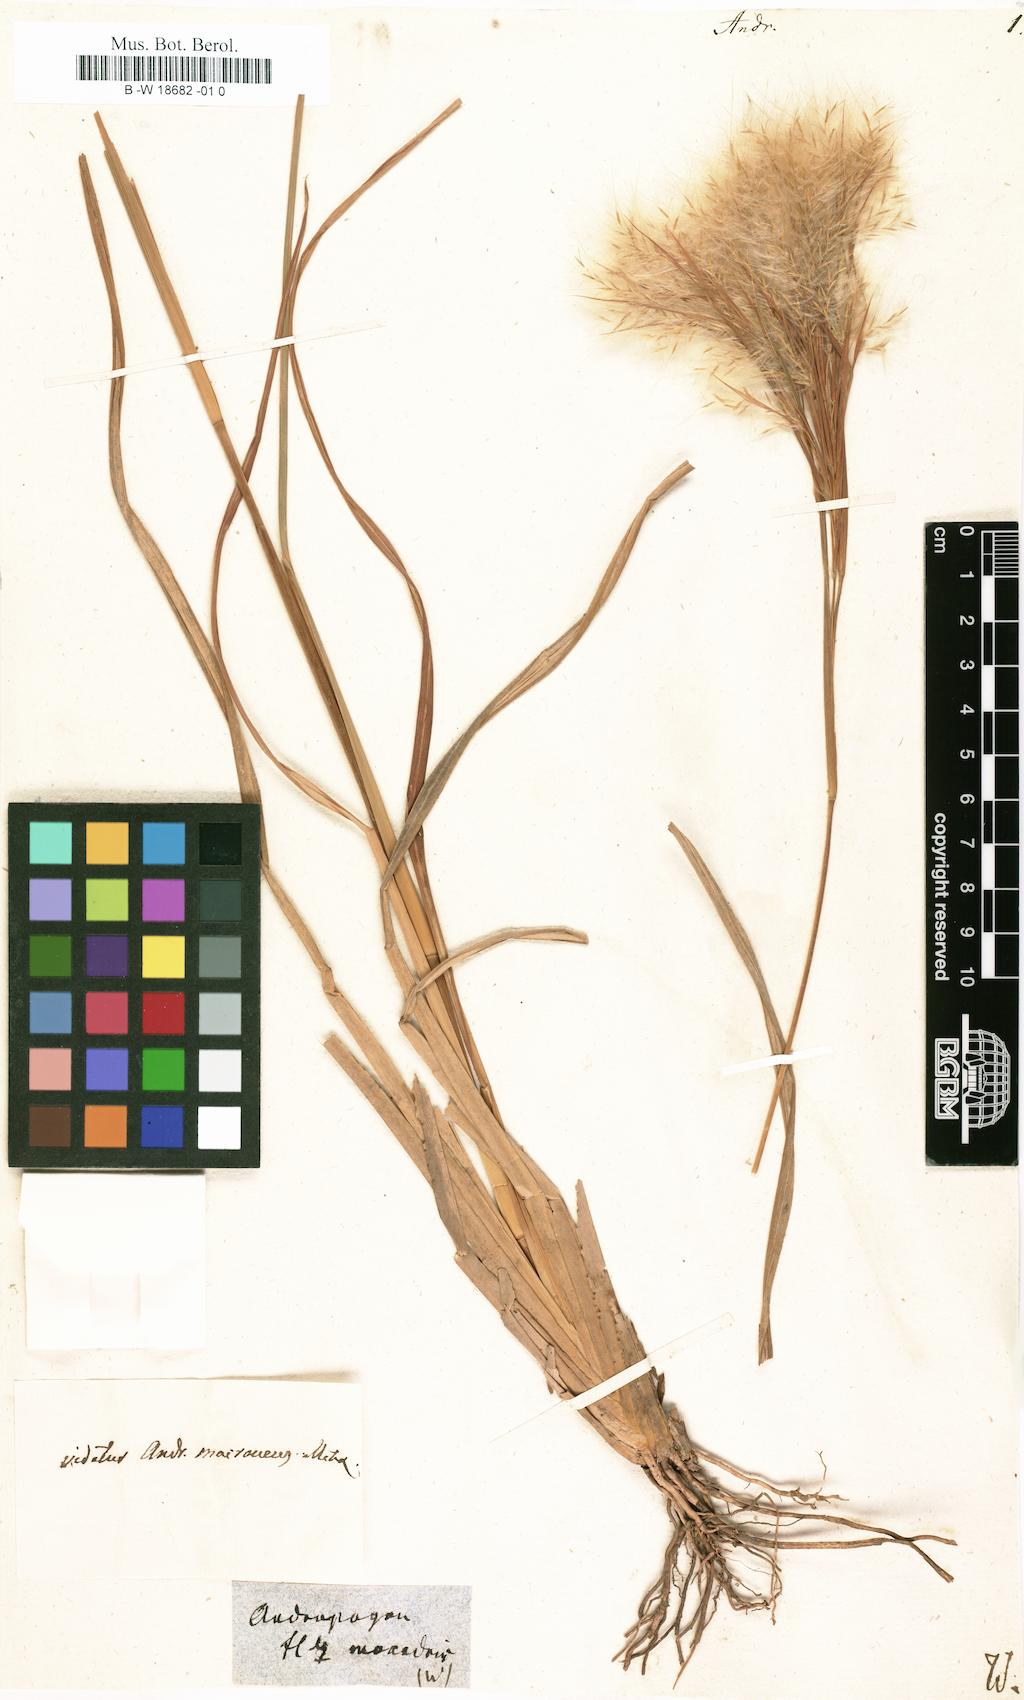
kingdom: Plantae
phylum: Tracheophyta
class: Liliopsida
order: Poales
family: Poaceae
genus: Andropogon
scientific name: Andropogon
